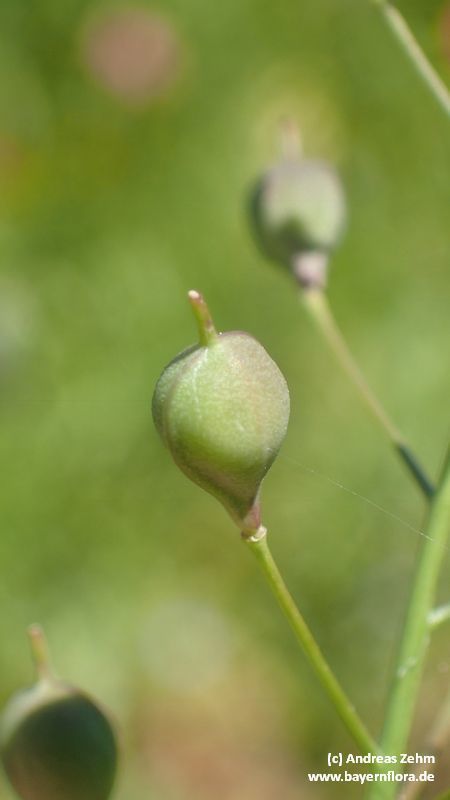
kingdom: Plantae
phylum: Tracheophyta
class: Magnoliopsida
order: Brassicales
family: Brassicaceae
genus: Camelina
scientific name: Camelina sativa
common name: Gold-of-pleasure
